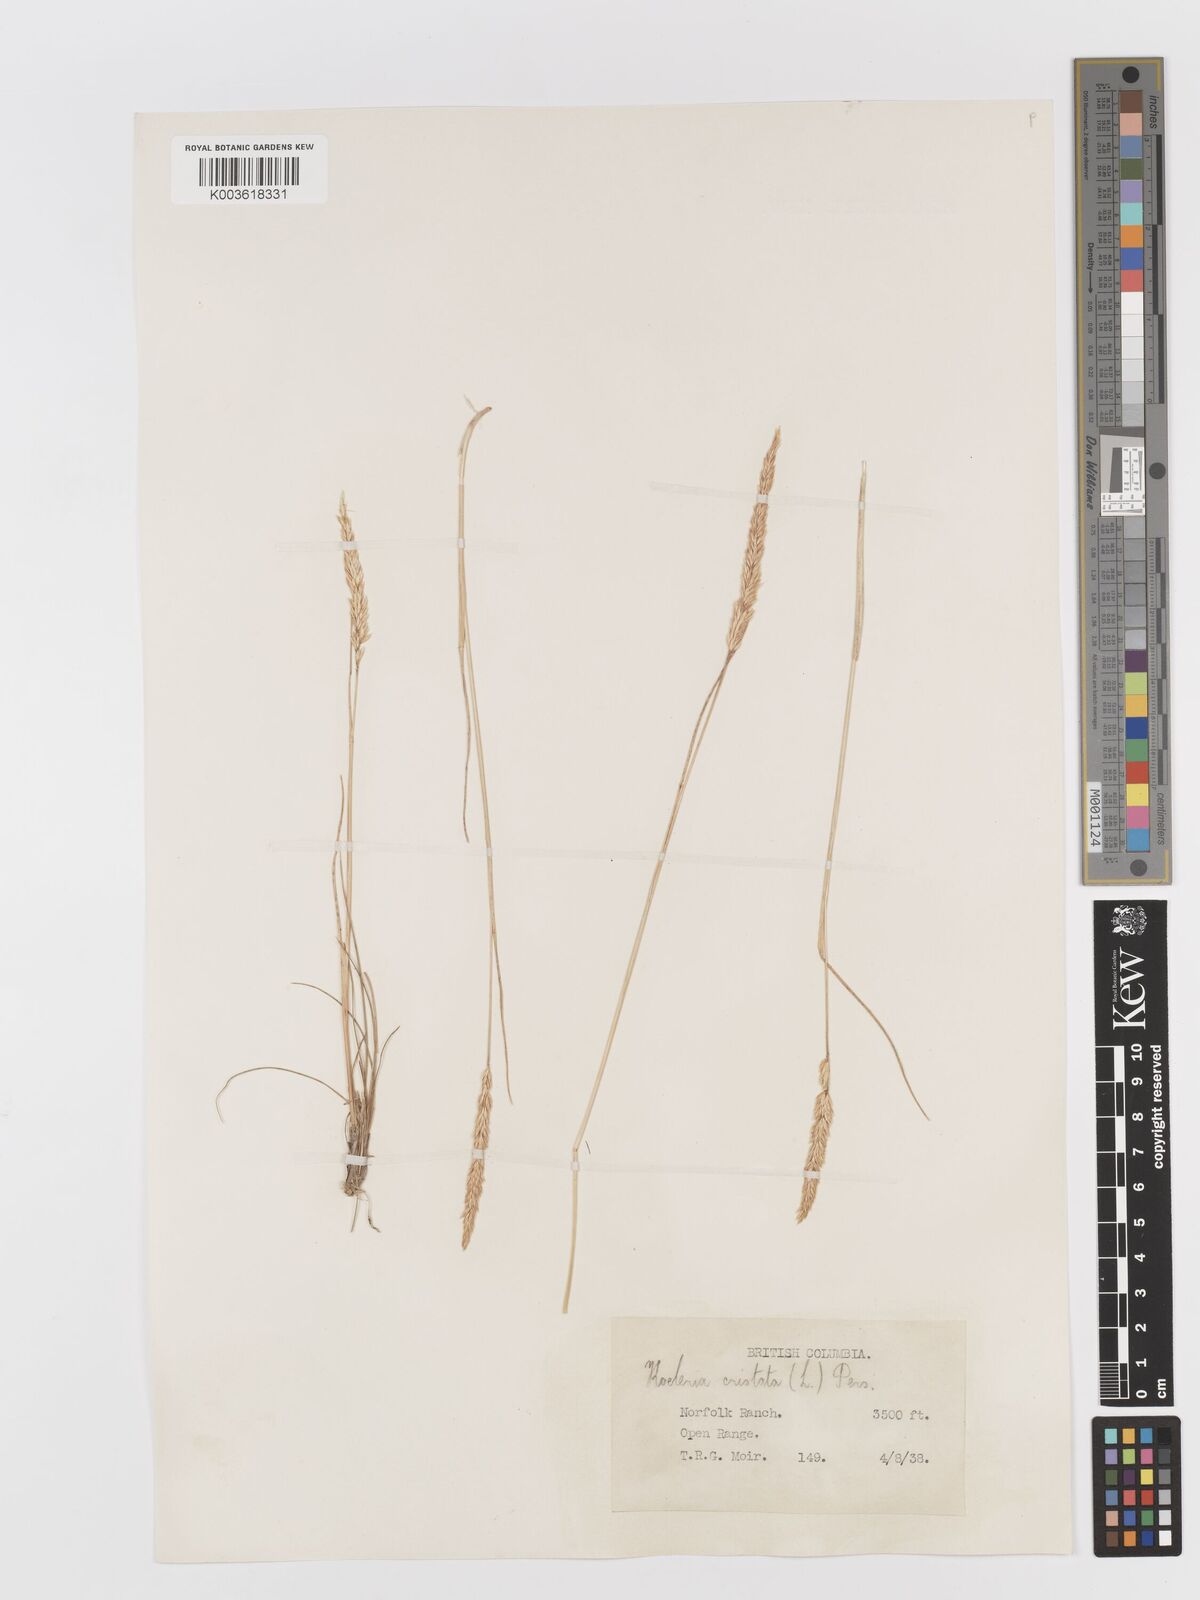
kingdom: Plantae
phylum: Tracheophyta
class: Liliopsida
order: Poales
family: Poaceae
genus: Koeleria
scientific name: Koeleria
